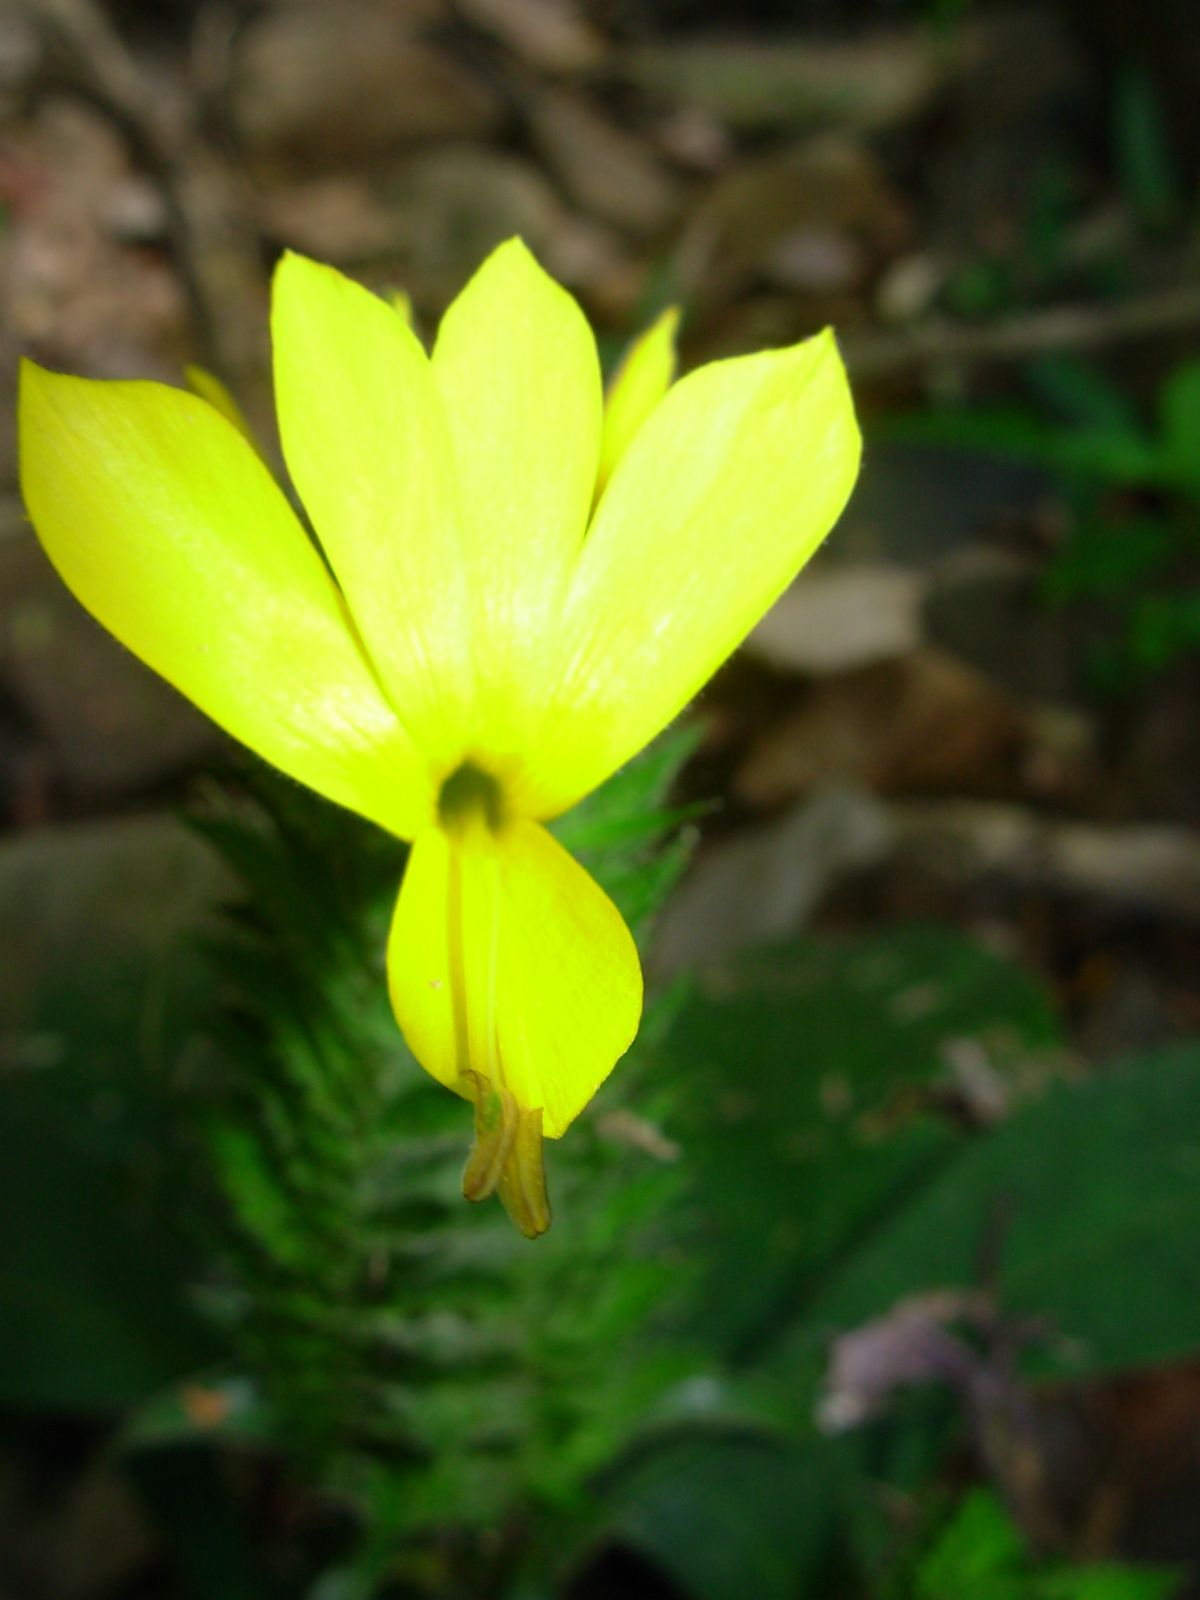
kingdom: Plantae
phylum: Tracheophyta
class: Magnoliopsida
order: Lamiales
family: Acanthaceae
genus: Barleria
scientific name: Barleria oenotheroides
